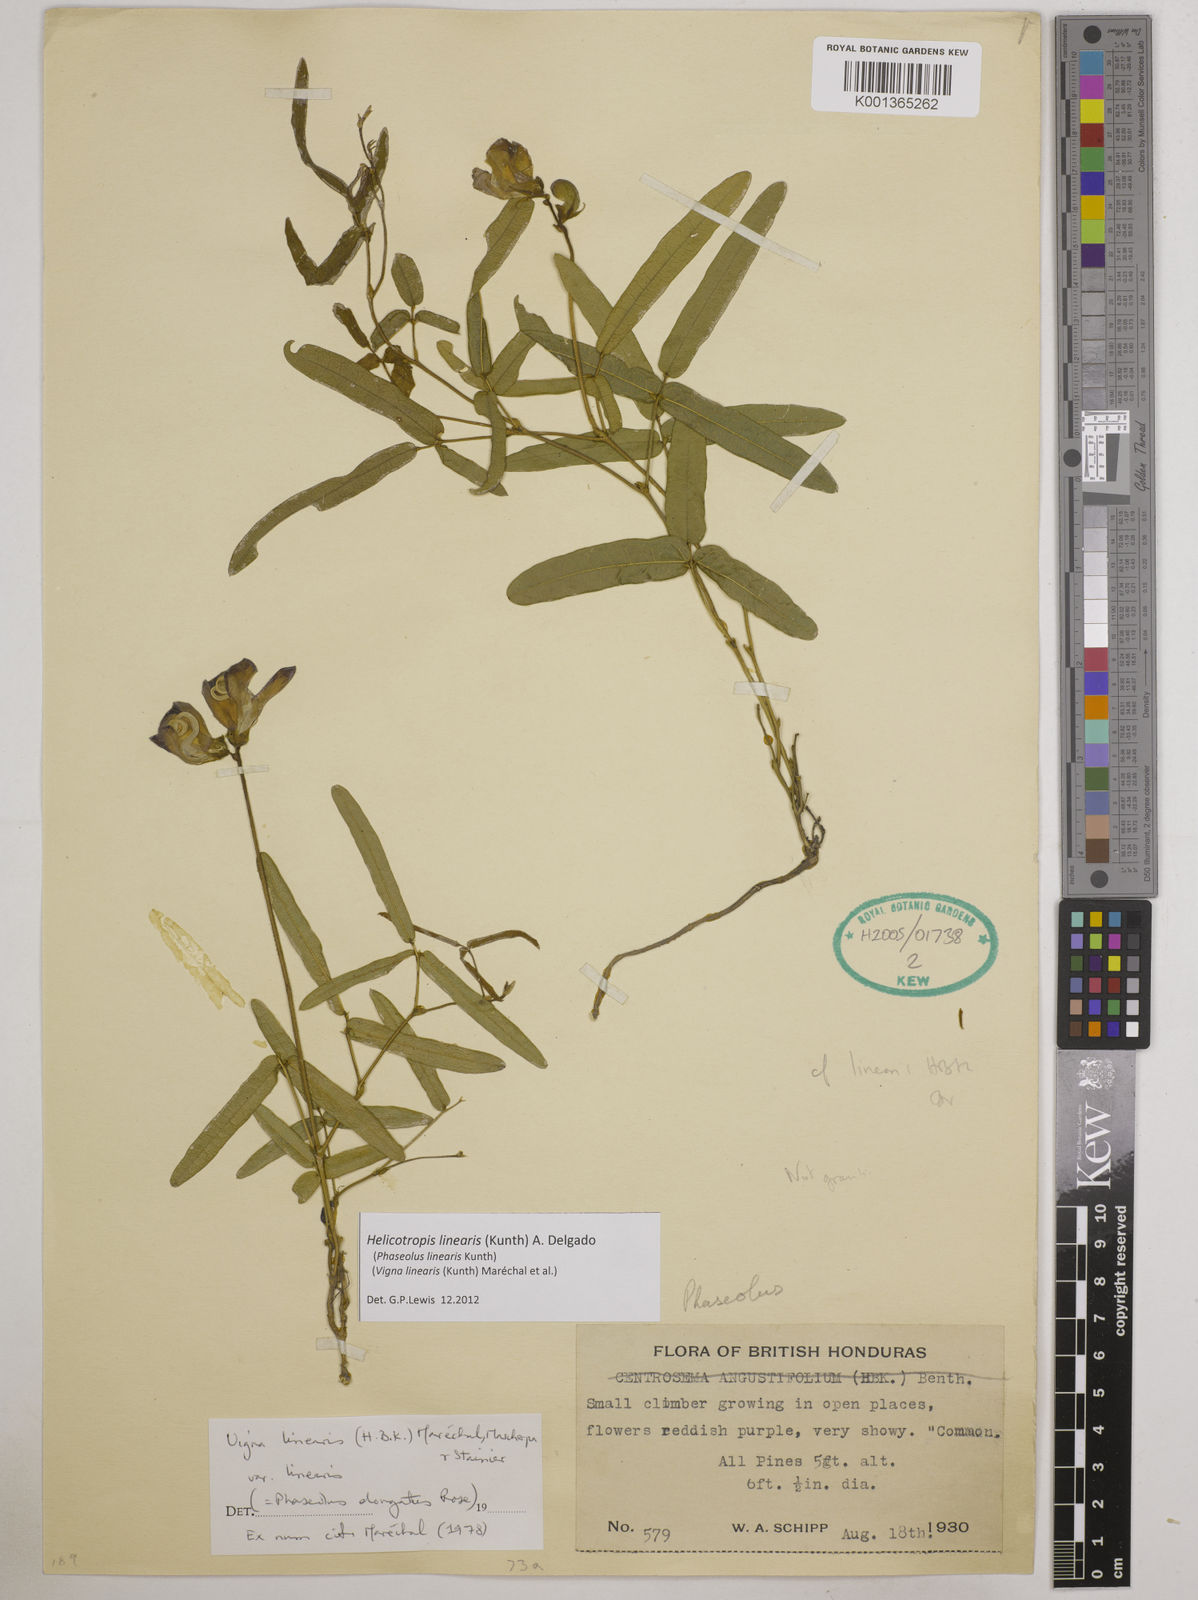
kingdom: Plantae
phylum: Tracheophyta
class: Magnoliopsida
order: Fabales
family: Fabaceae
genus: Helicotropis
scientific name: Helicotropis linearis
